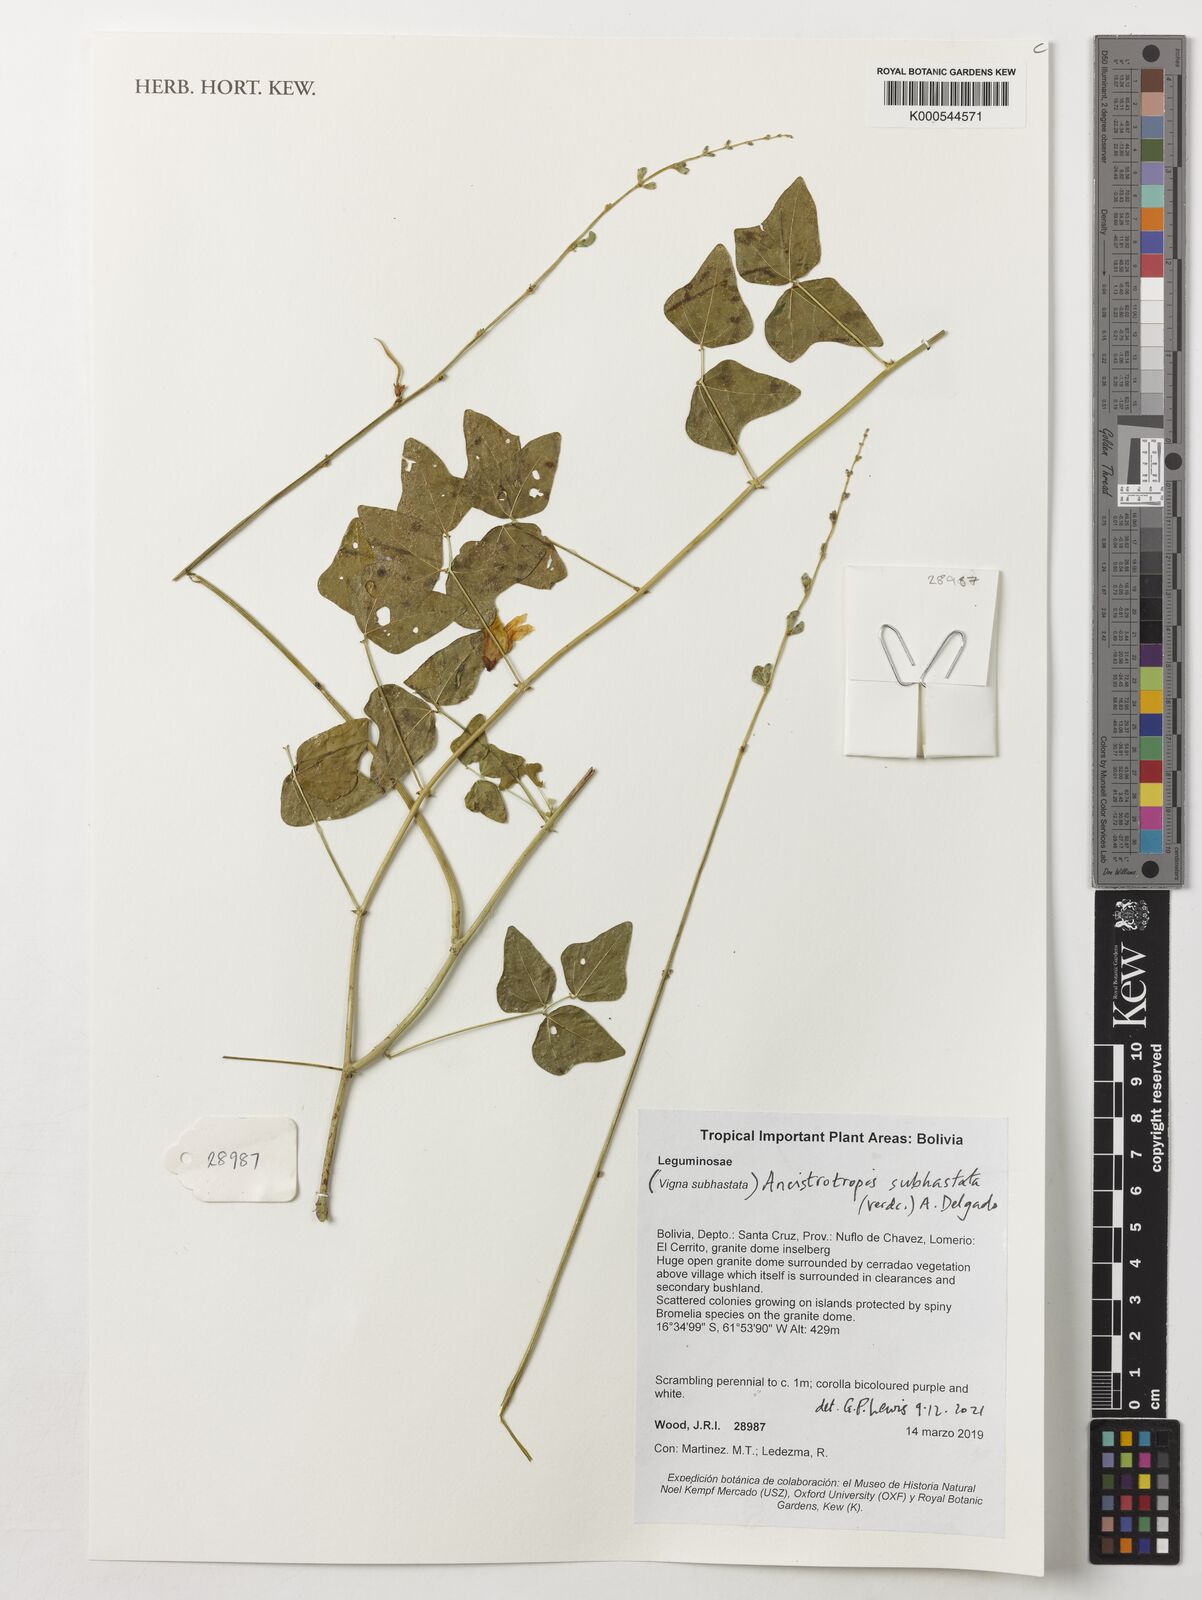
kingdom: Plantae
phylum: Tracheophyta
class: Magnoliopsida
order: Fabales
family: Fabaceae
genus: Ancistrotropis
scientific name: Ancistrotropis subhastata
